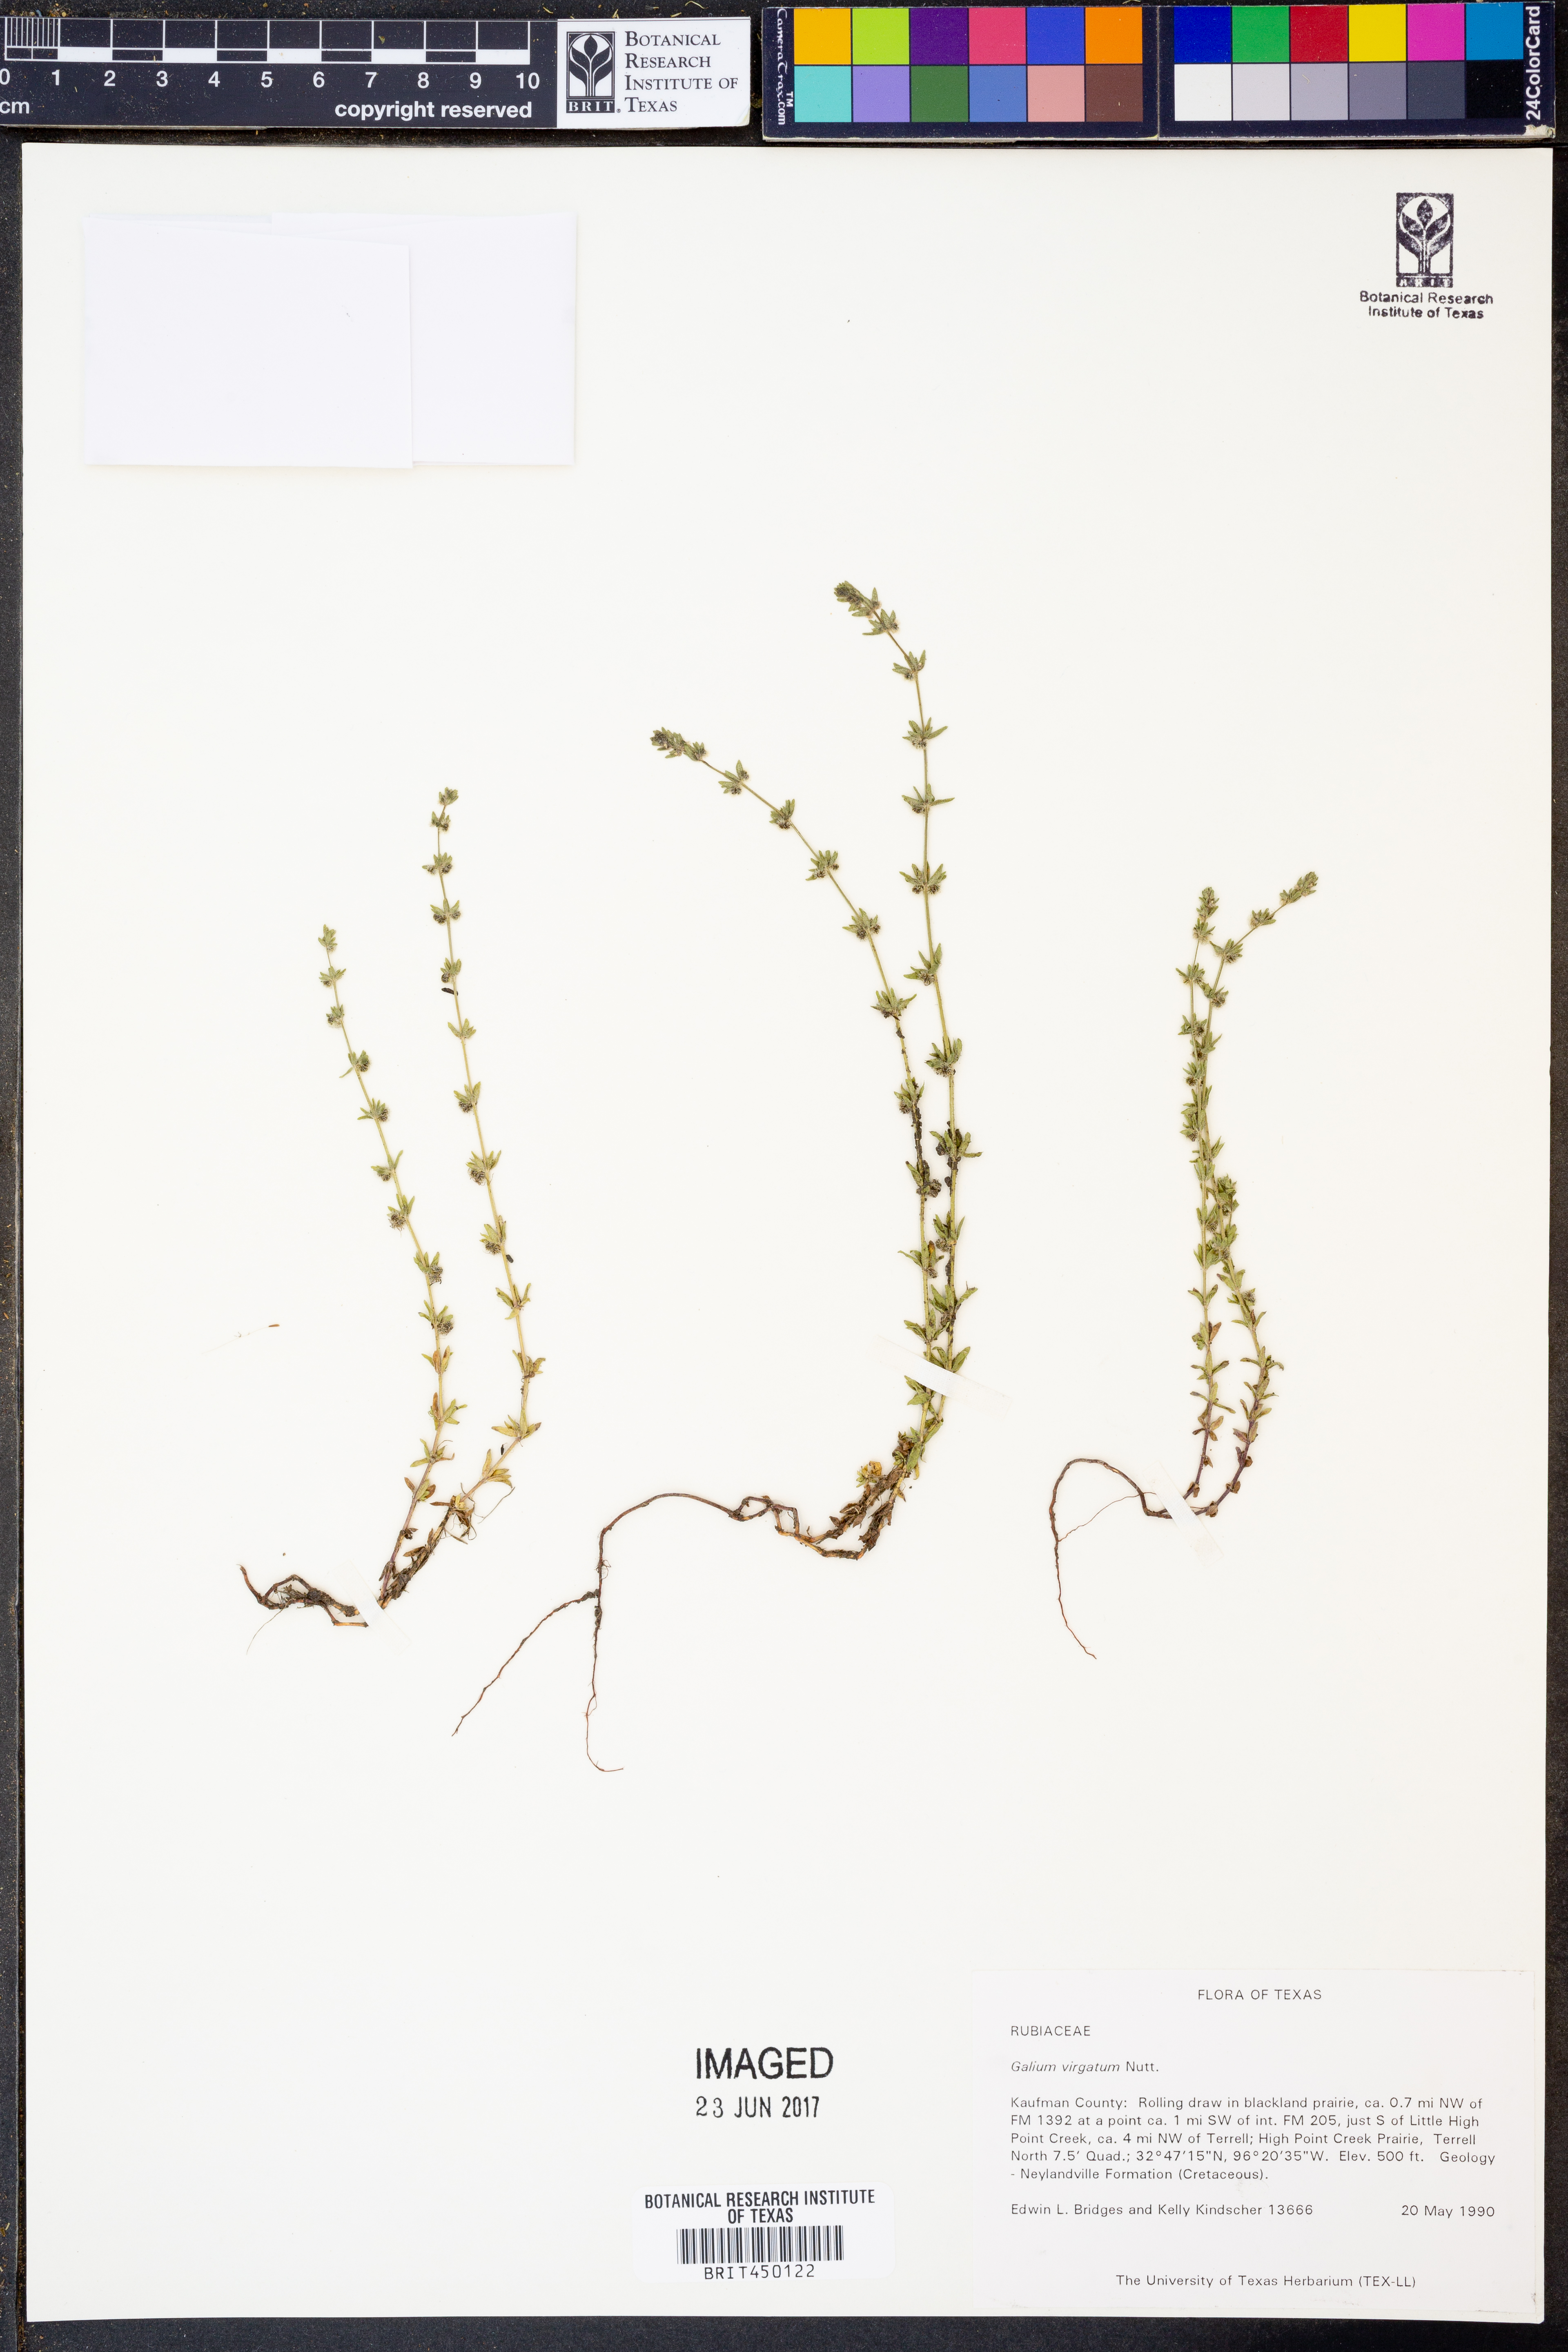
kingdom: Plantae
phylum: Tracheophyta
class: Magnoliopsida
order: Gentianales
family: Rubiaceae
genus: Galium
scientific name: Galium virgatum
